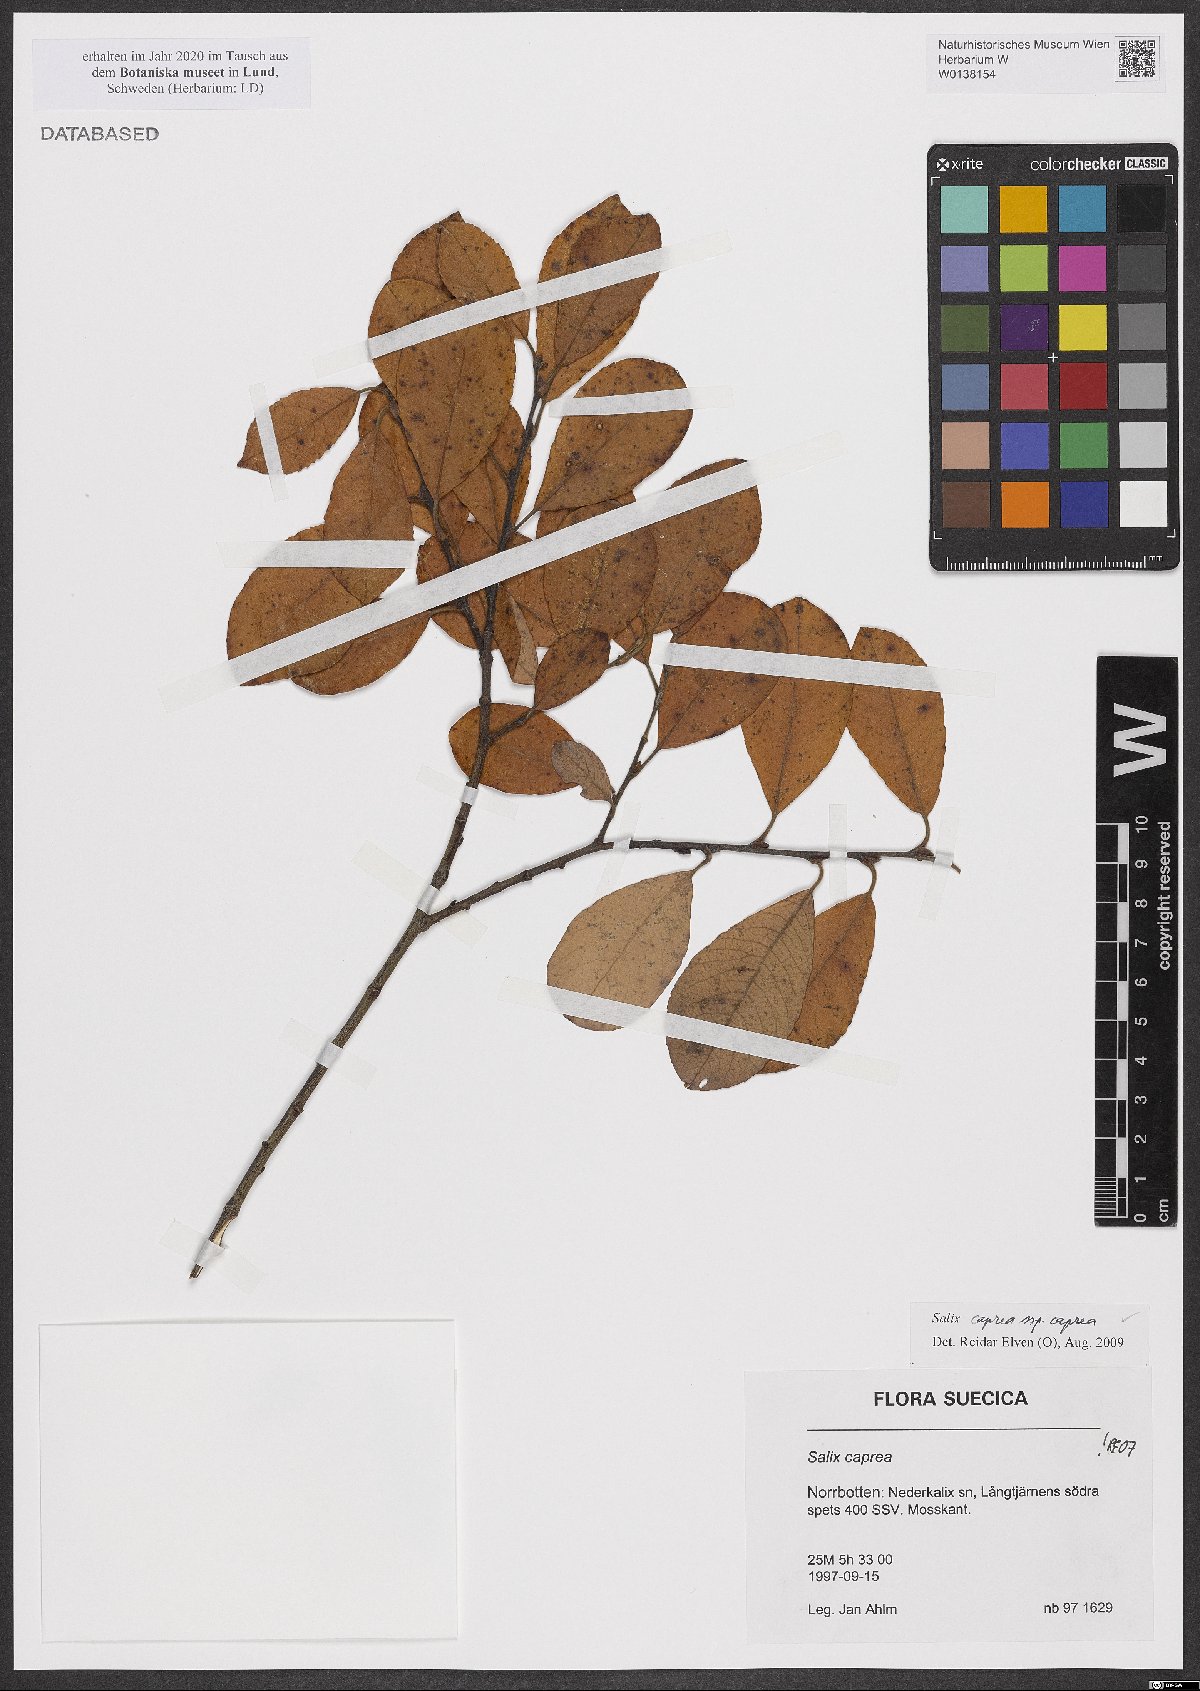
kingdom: Plantae
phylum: Tracheophyta
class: Magnoliopsida
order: Malpighiales
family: Salicaceae
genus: Salix
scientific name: Salix caprea
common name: Goat willow
